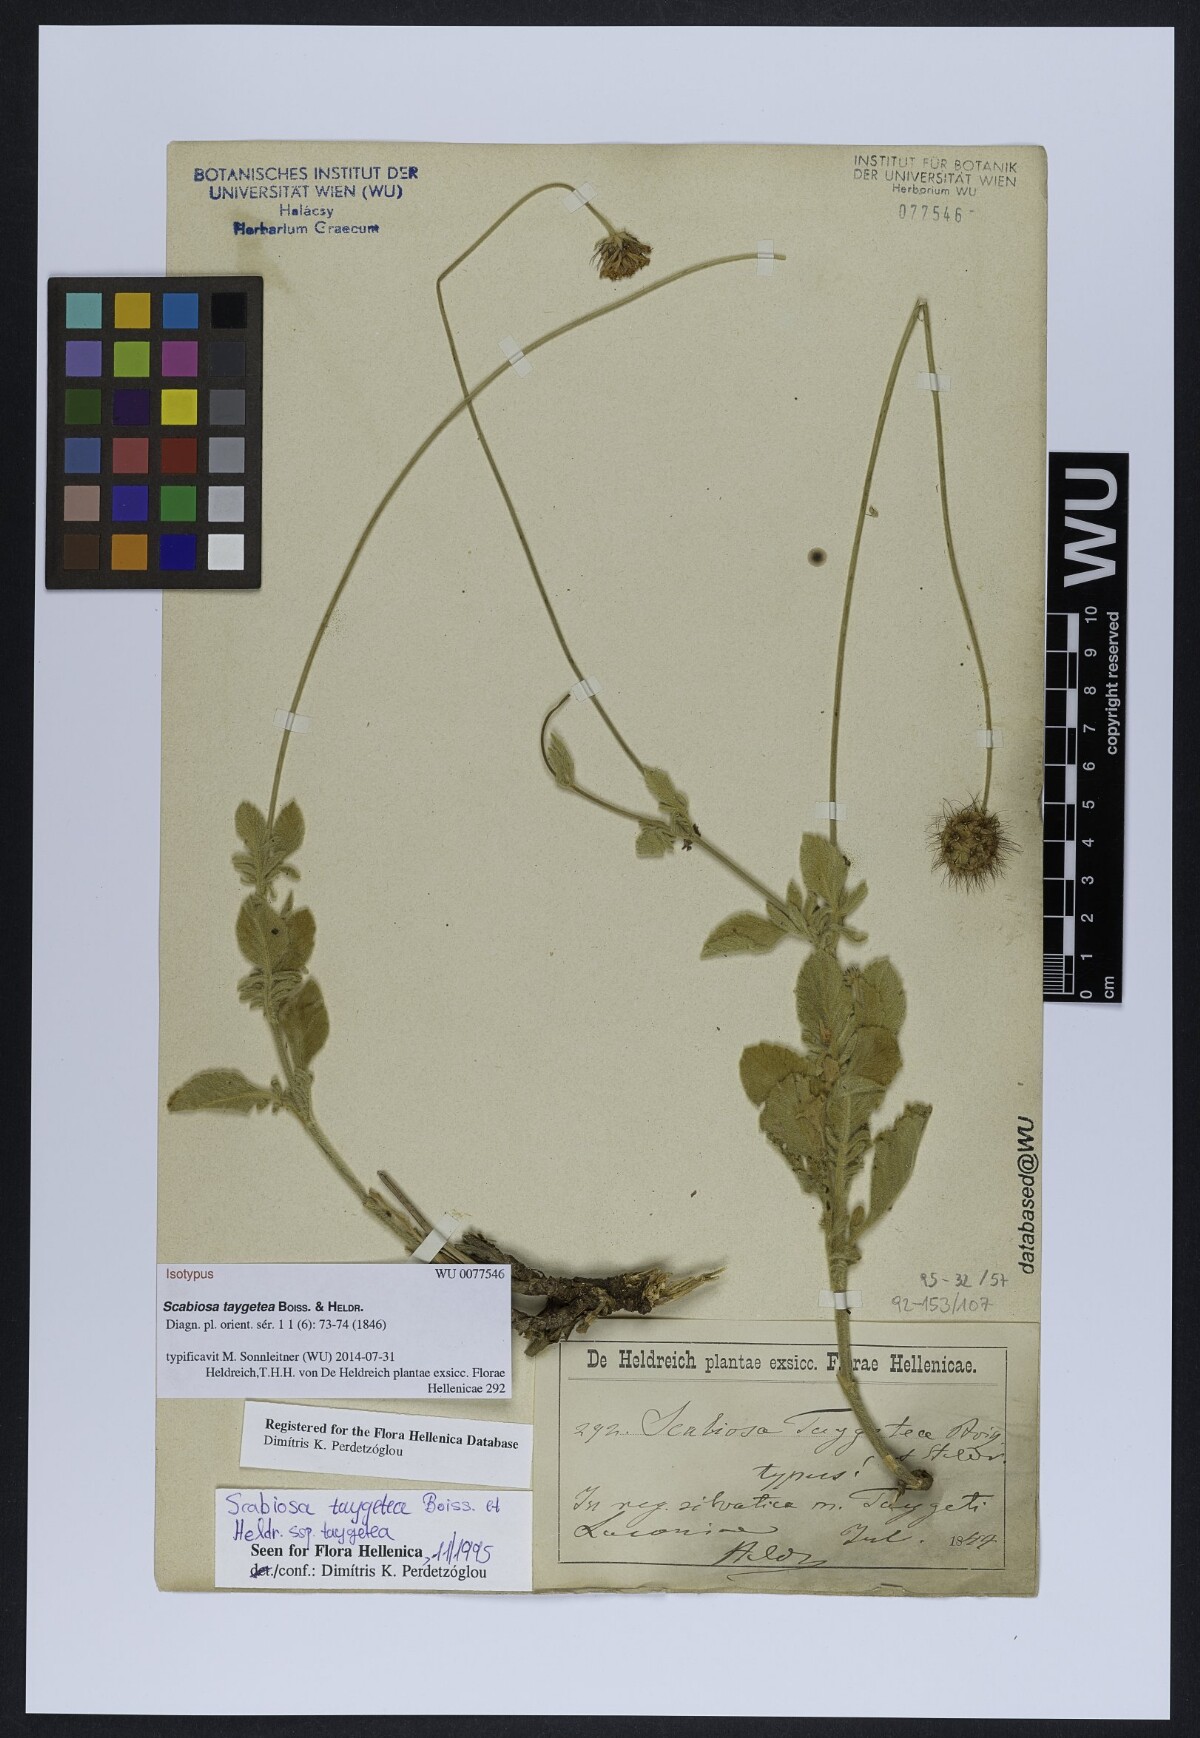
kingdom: Plantae
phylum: Tracheophyta
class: Magnoliopsida
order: Dipsacales
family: Caprifoliaceae
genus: Scabiosa
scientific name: Scabiosa taygetea
